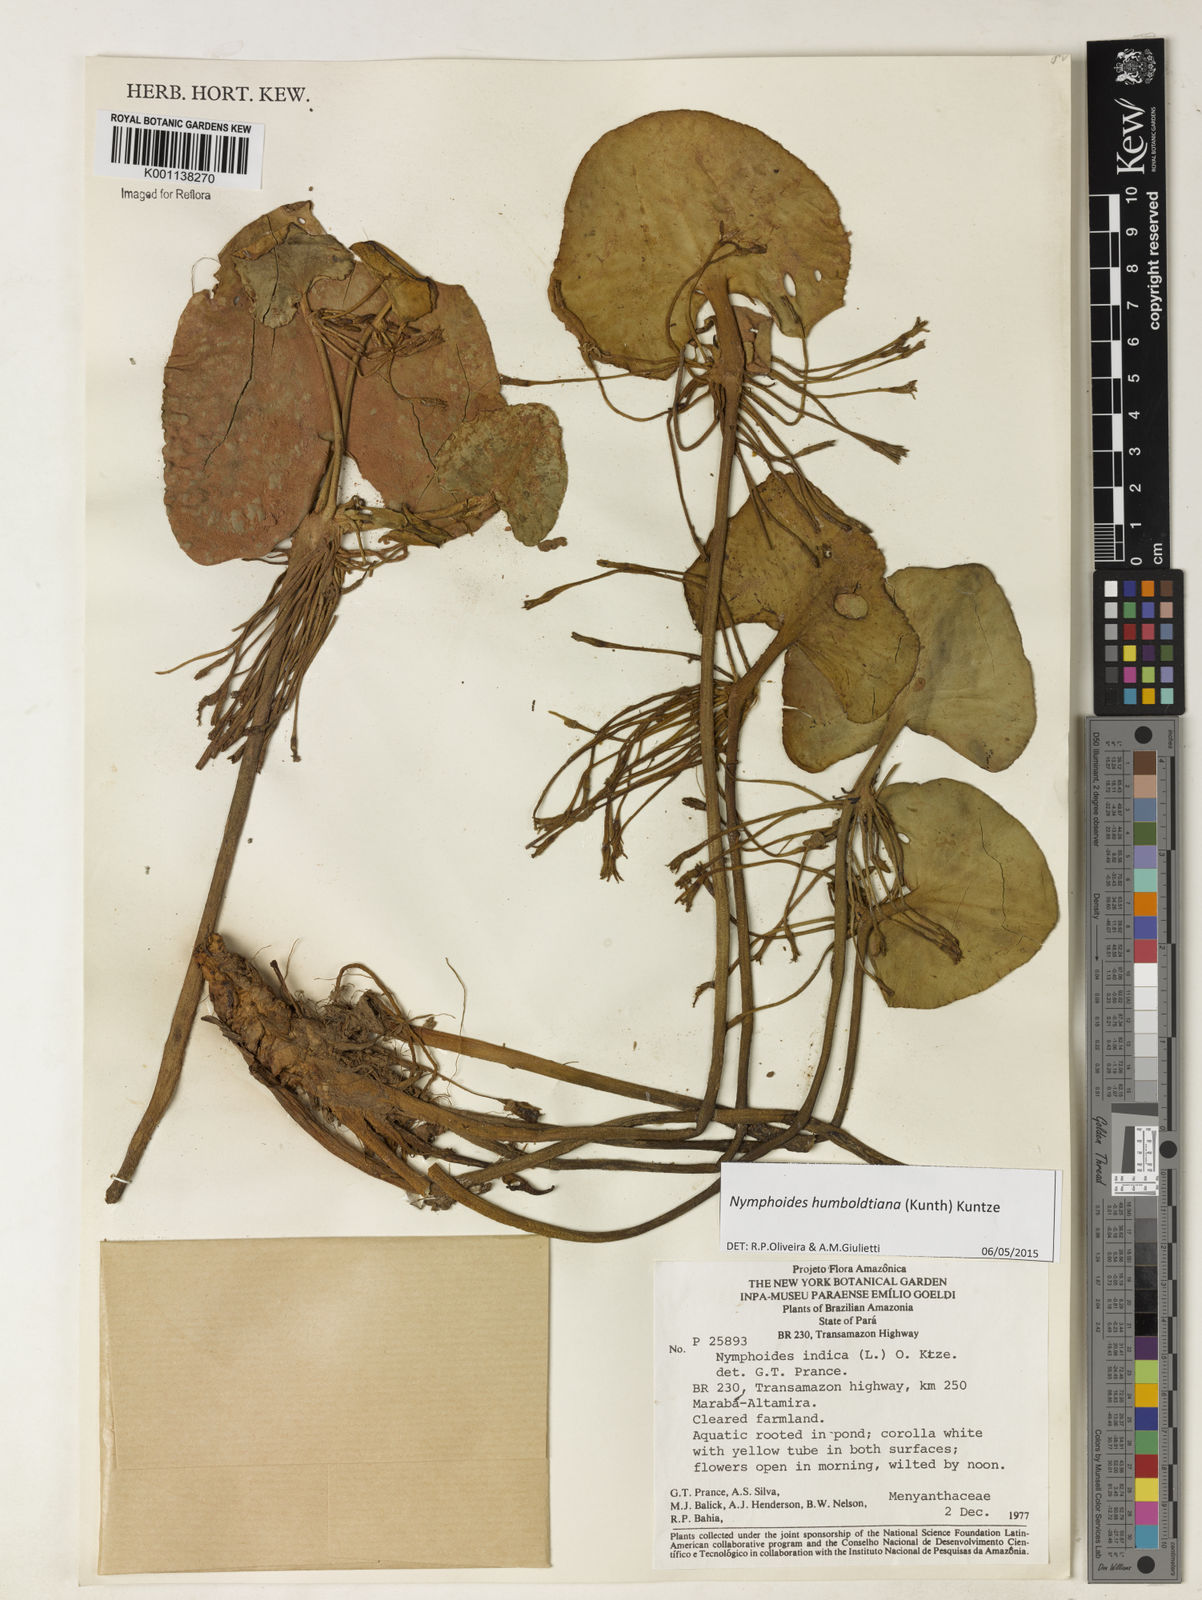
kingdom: Plantae
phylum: Tracheophyta
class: Magnoliopsida
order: Asterales
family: Menyanthaceae
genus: Nymphoides
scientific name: Nymphoides humboldtiana
